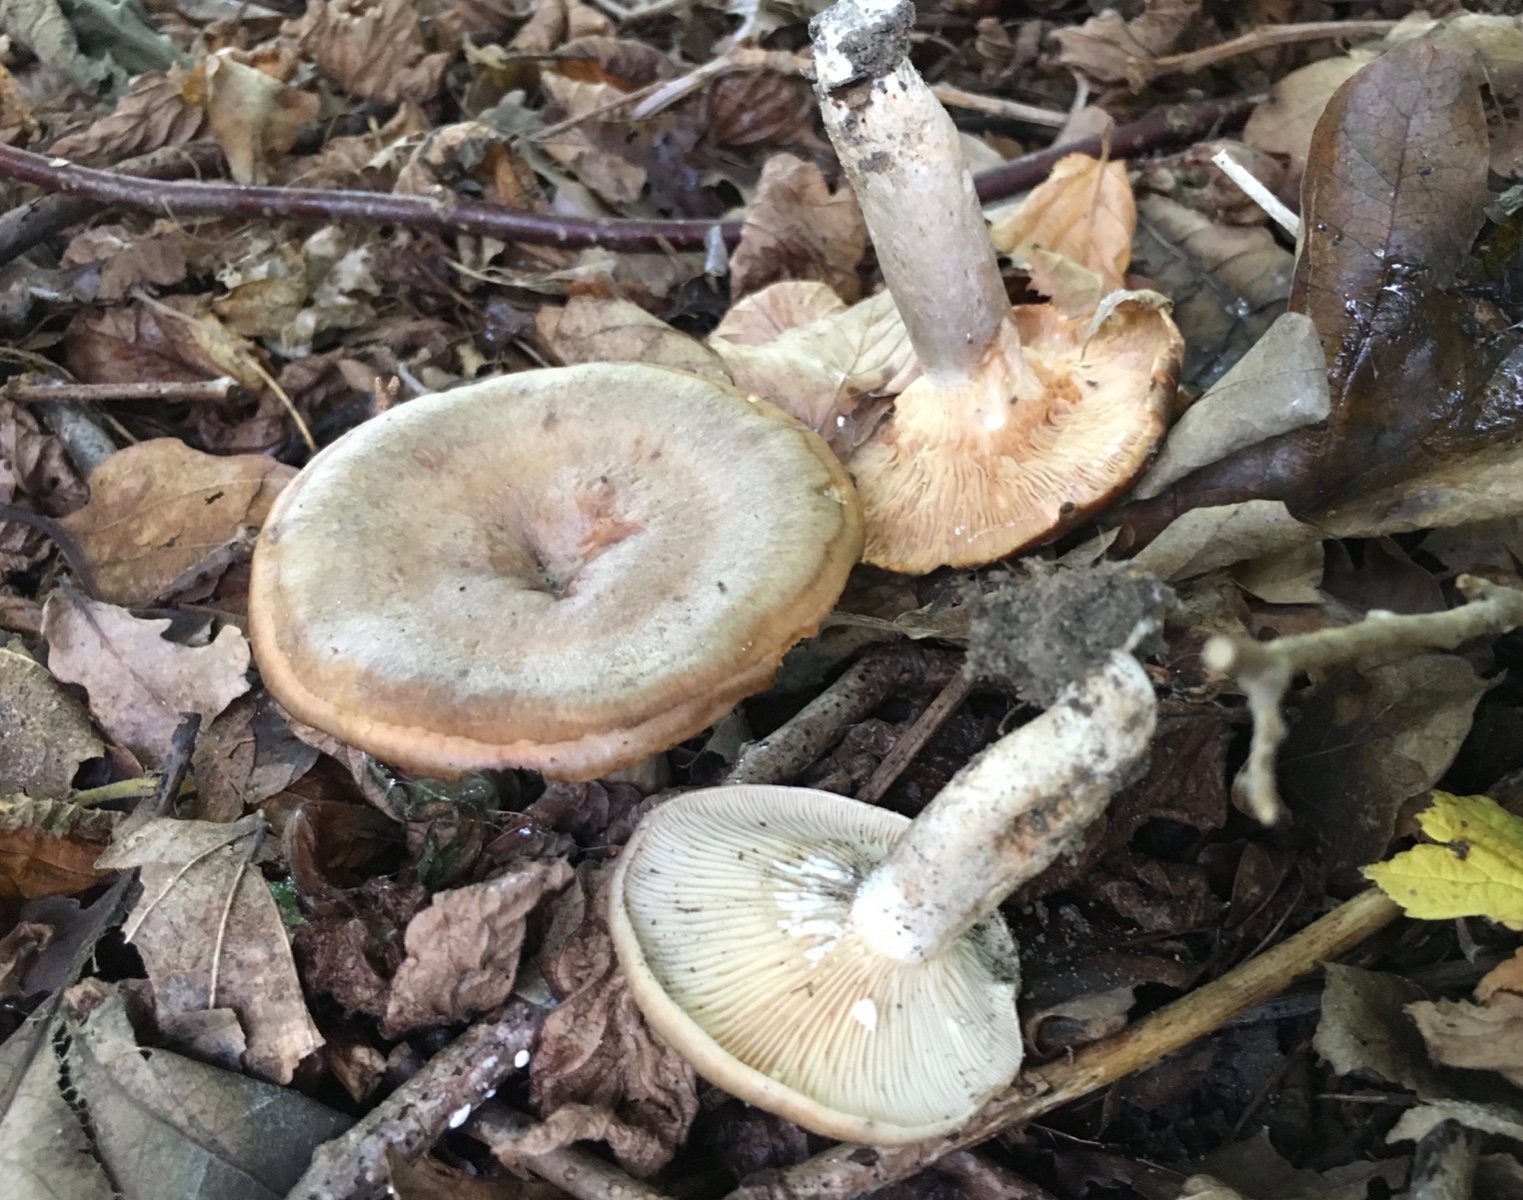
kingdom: Fungi
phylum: Basidiomycota
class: Agaricomycetes
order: Russulales
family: Russulaceae
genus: Lactarius
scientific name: Lactarius pyrogalus
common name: hassel-mælkehat
